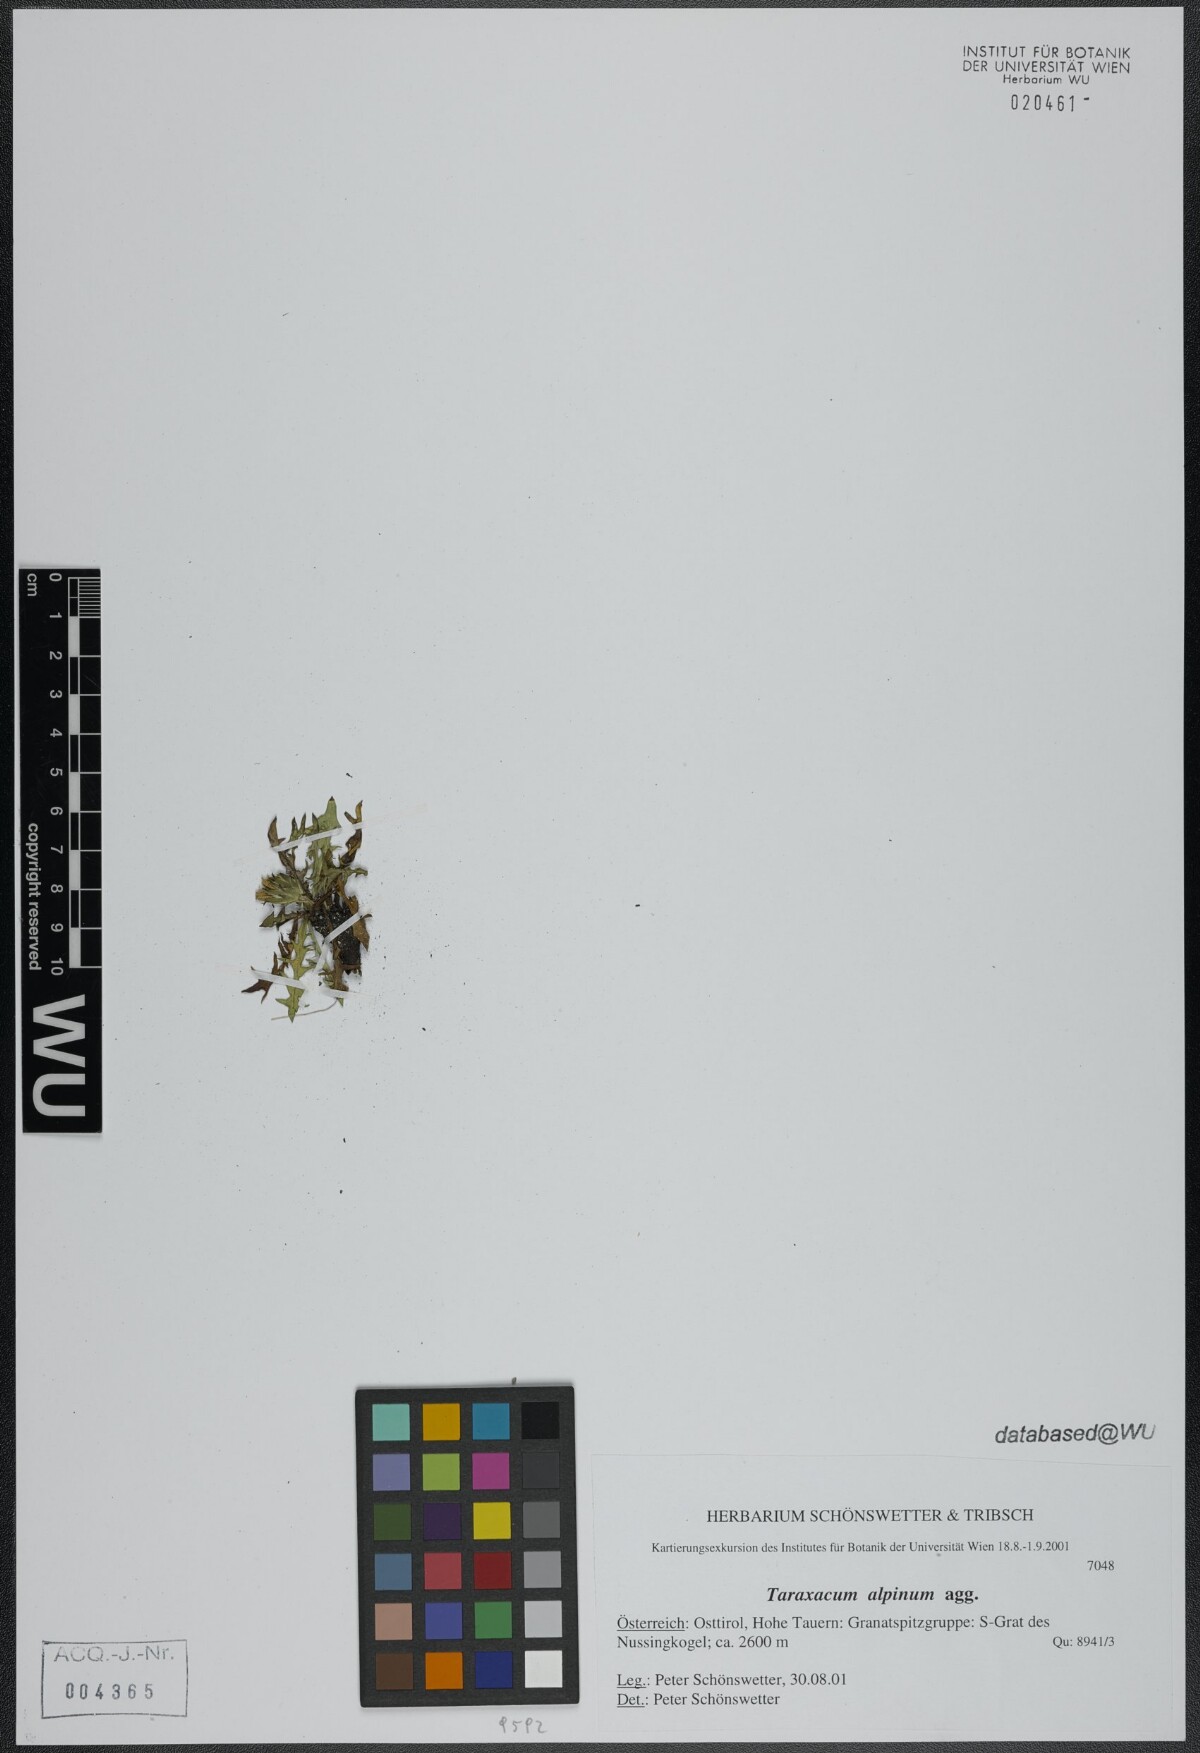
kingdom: Plantae
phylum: Tracheophyta
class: Magnoliopsida
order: Asterales
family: Asteraceae
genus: Taraxacum
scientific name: Taraxacum alpinum
